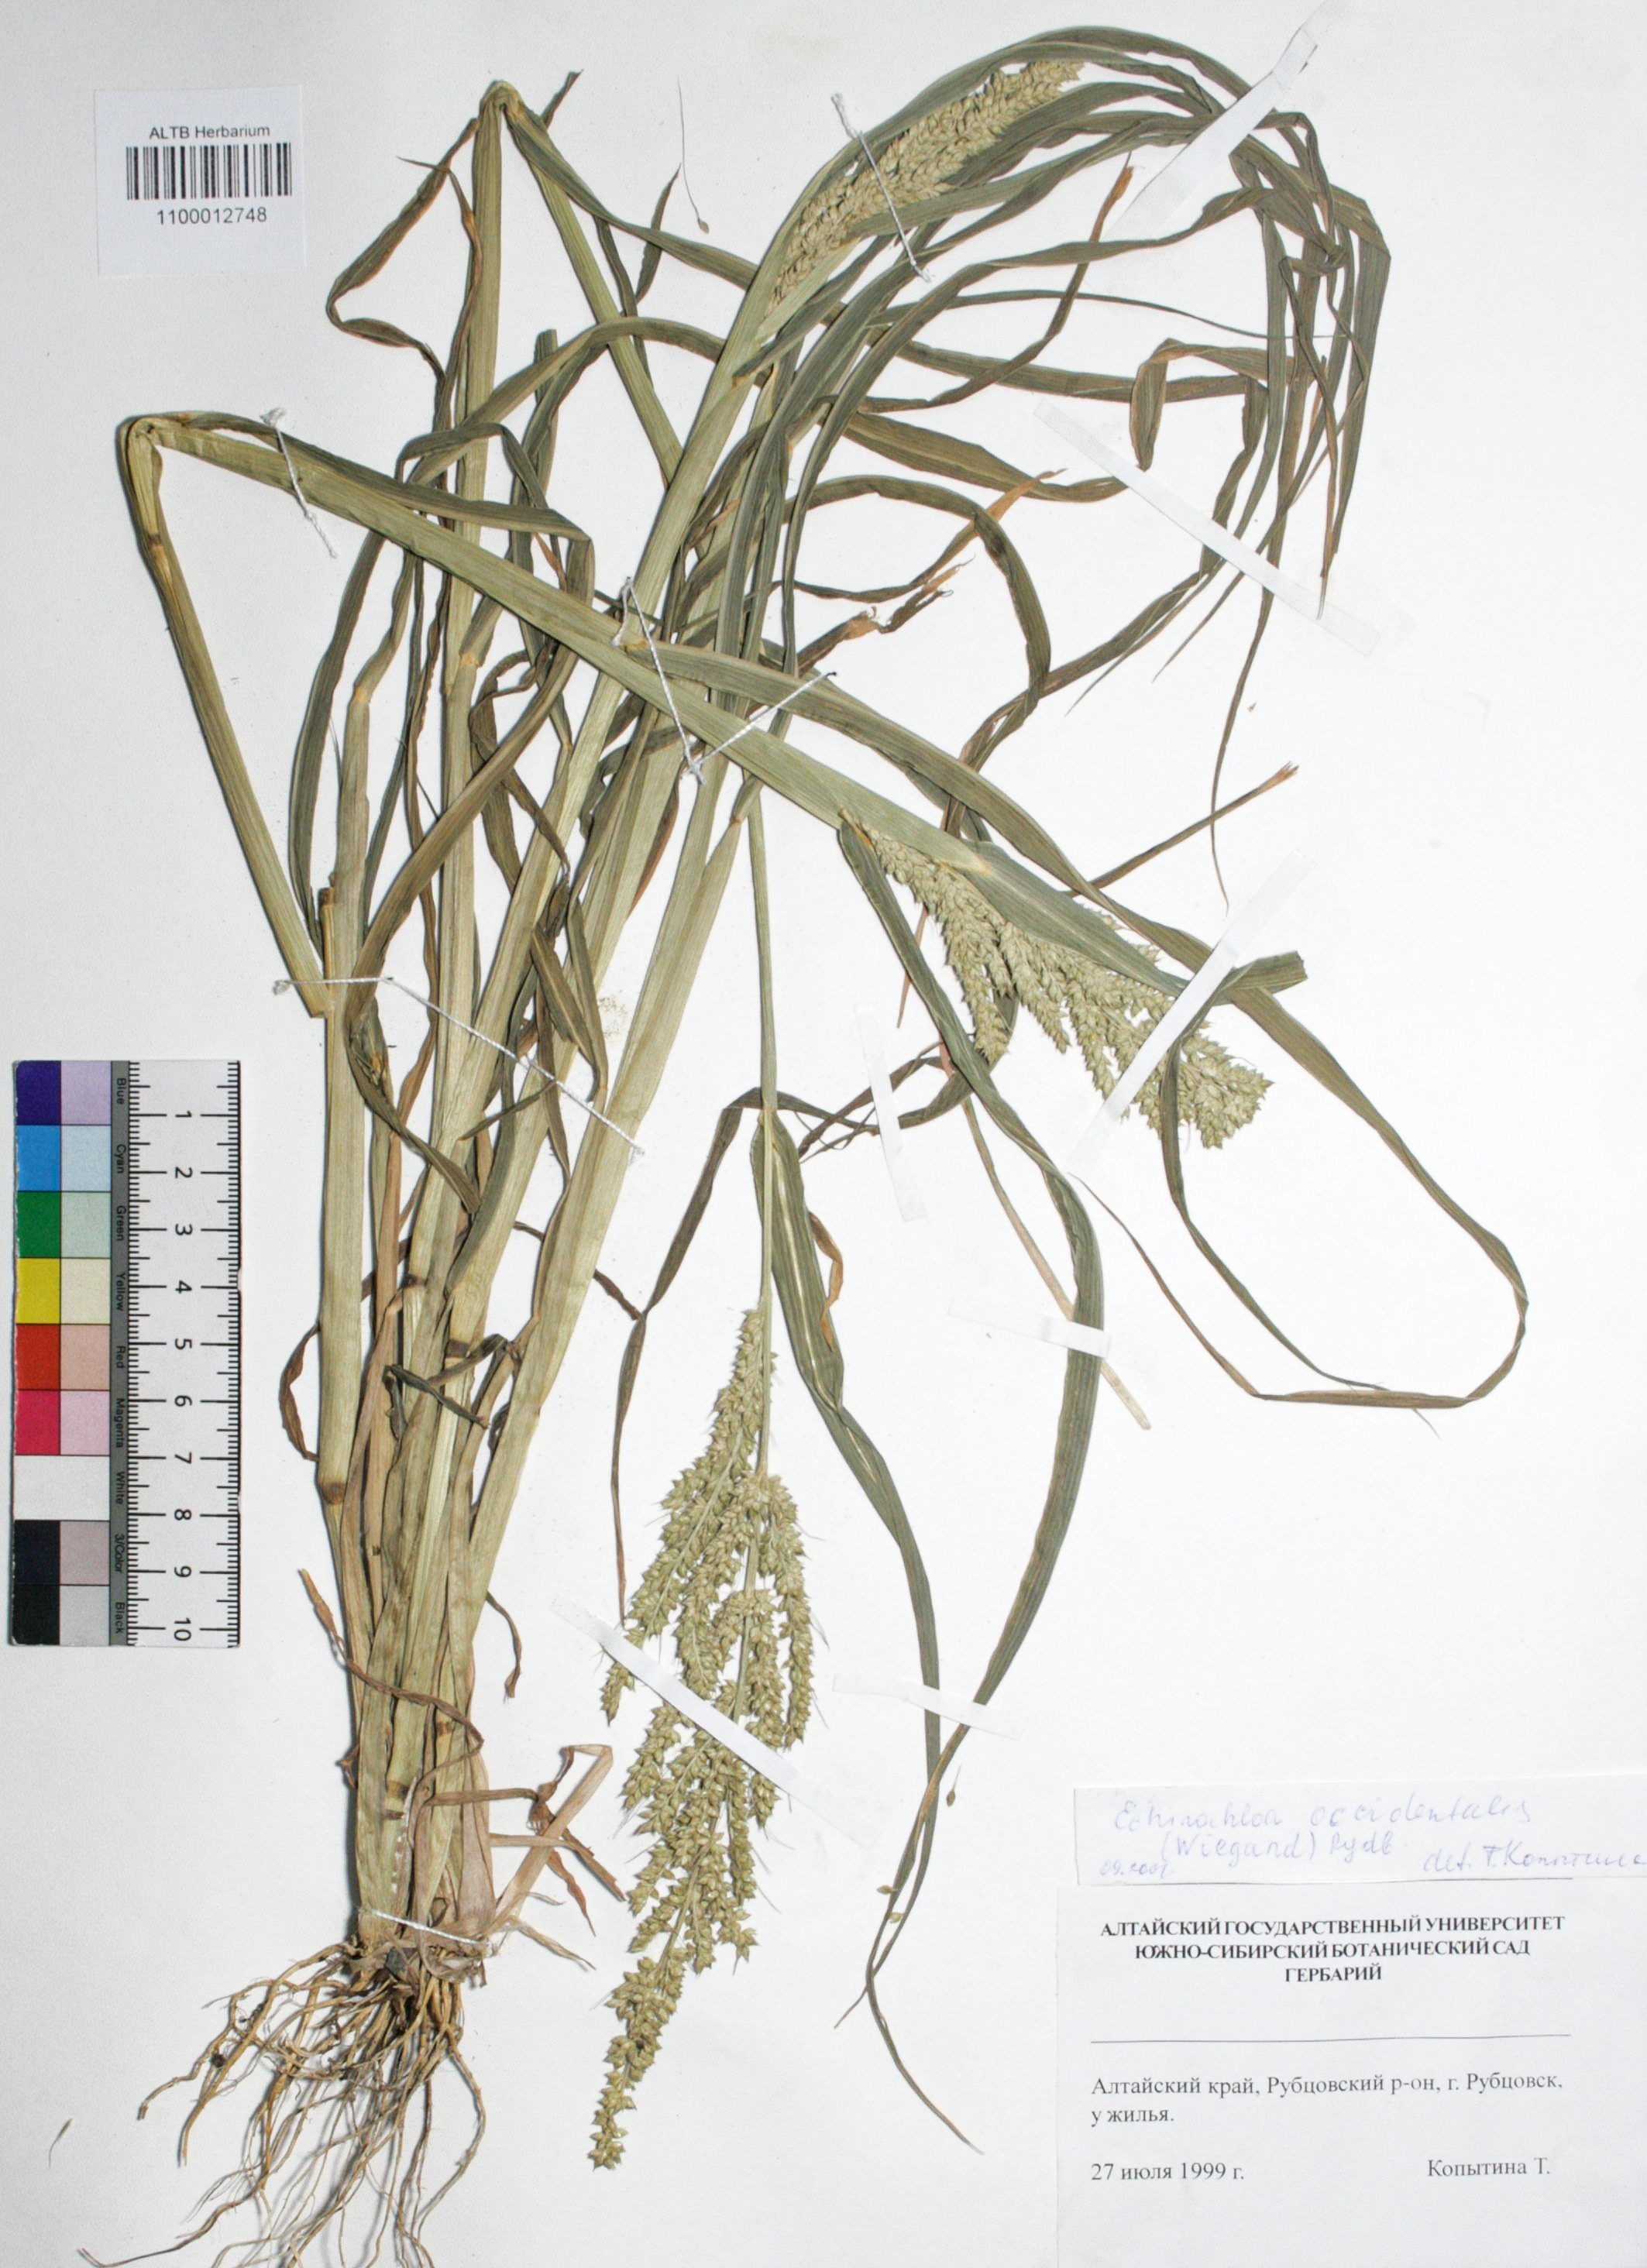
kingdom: Plantae
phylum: Tracheophyta
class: Liliopsida
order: Poales
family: Poaceae
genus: Echinochloa
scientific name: Echinochloa crus-galli
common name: Cockspur
